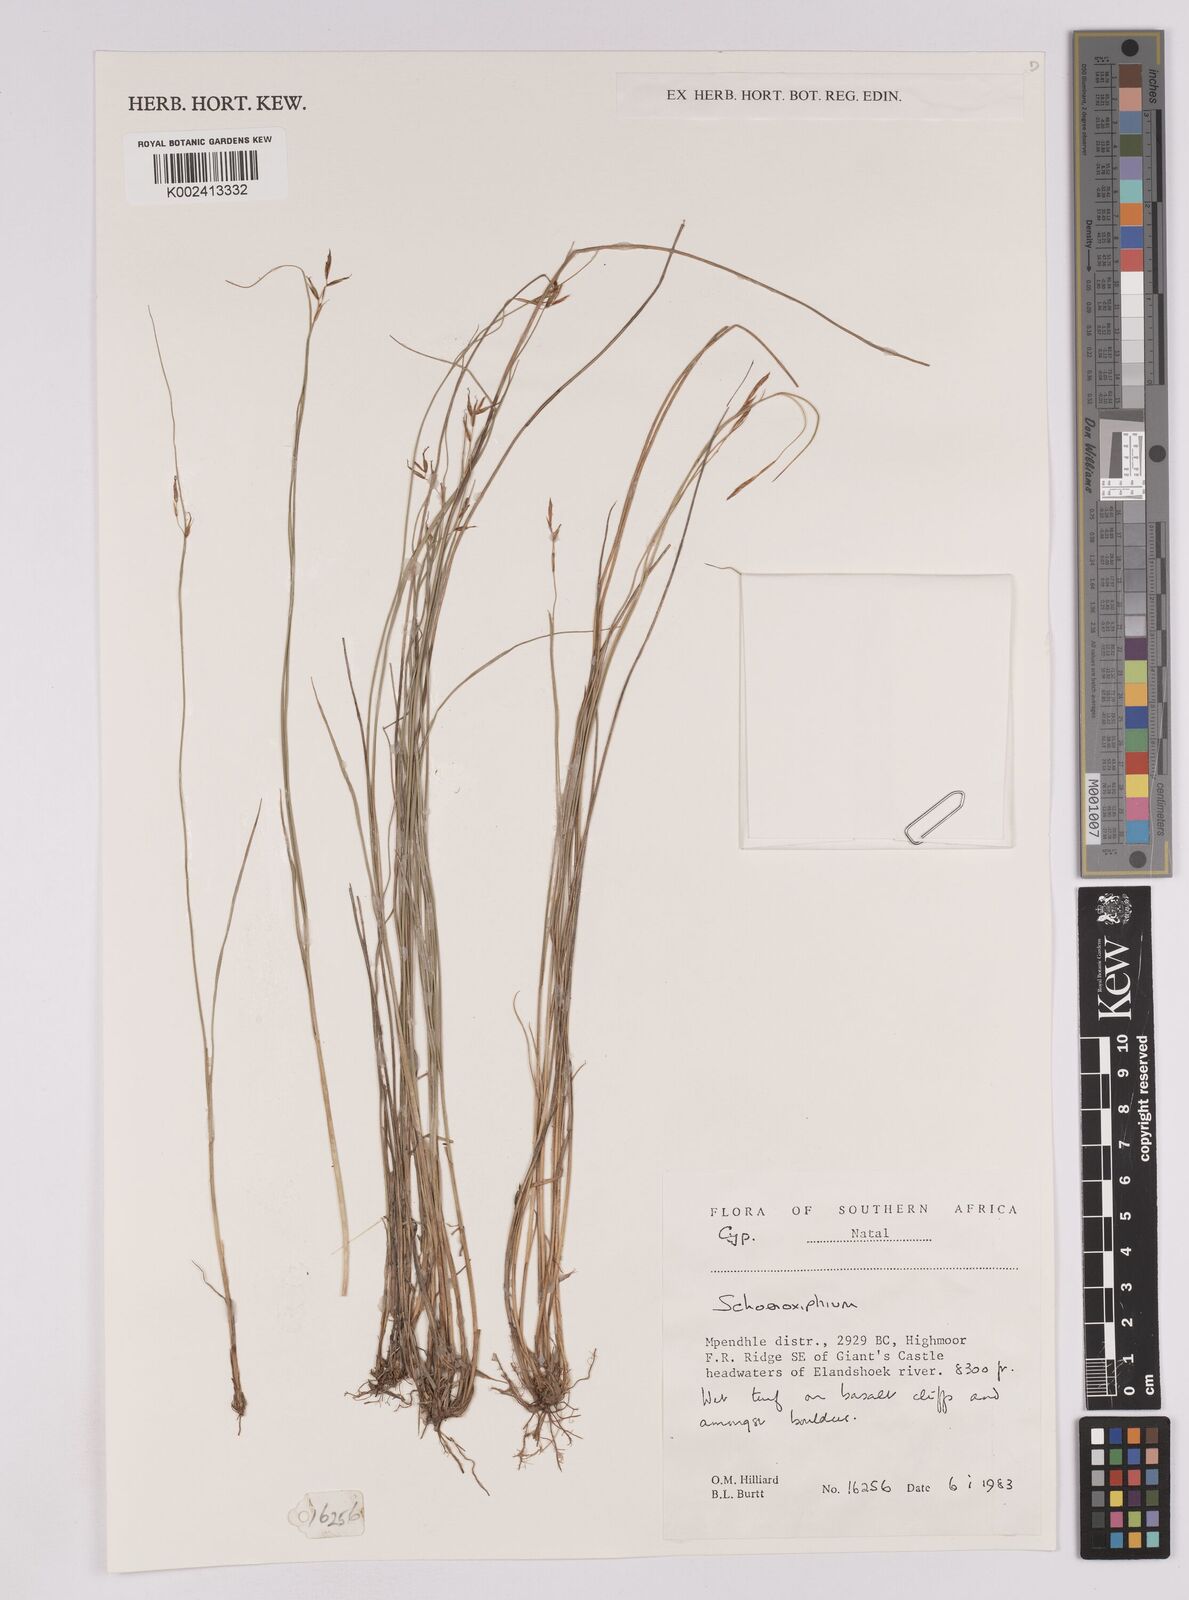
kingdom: Plantae
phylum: Tracheophyta
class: Liliopsida
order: Poales
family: Cyperaceae
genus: Carex
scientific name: Carex
